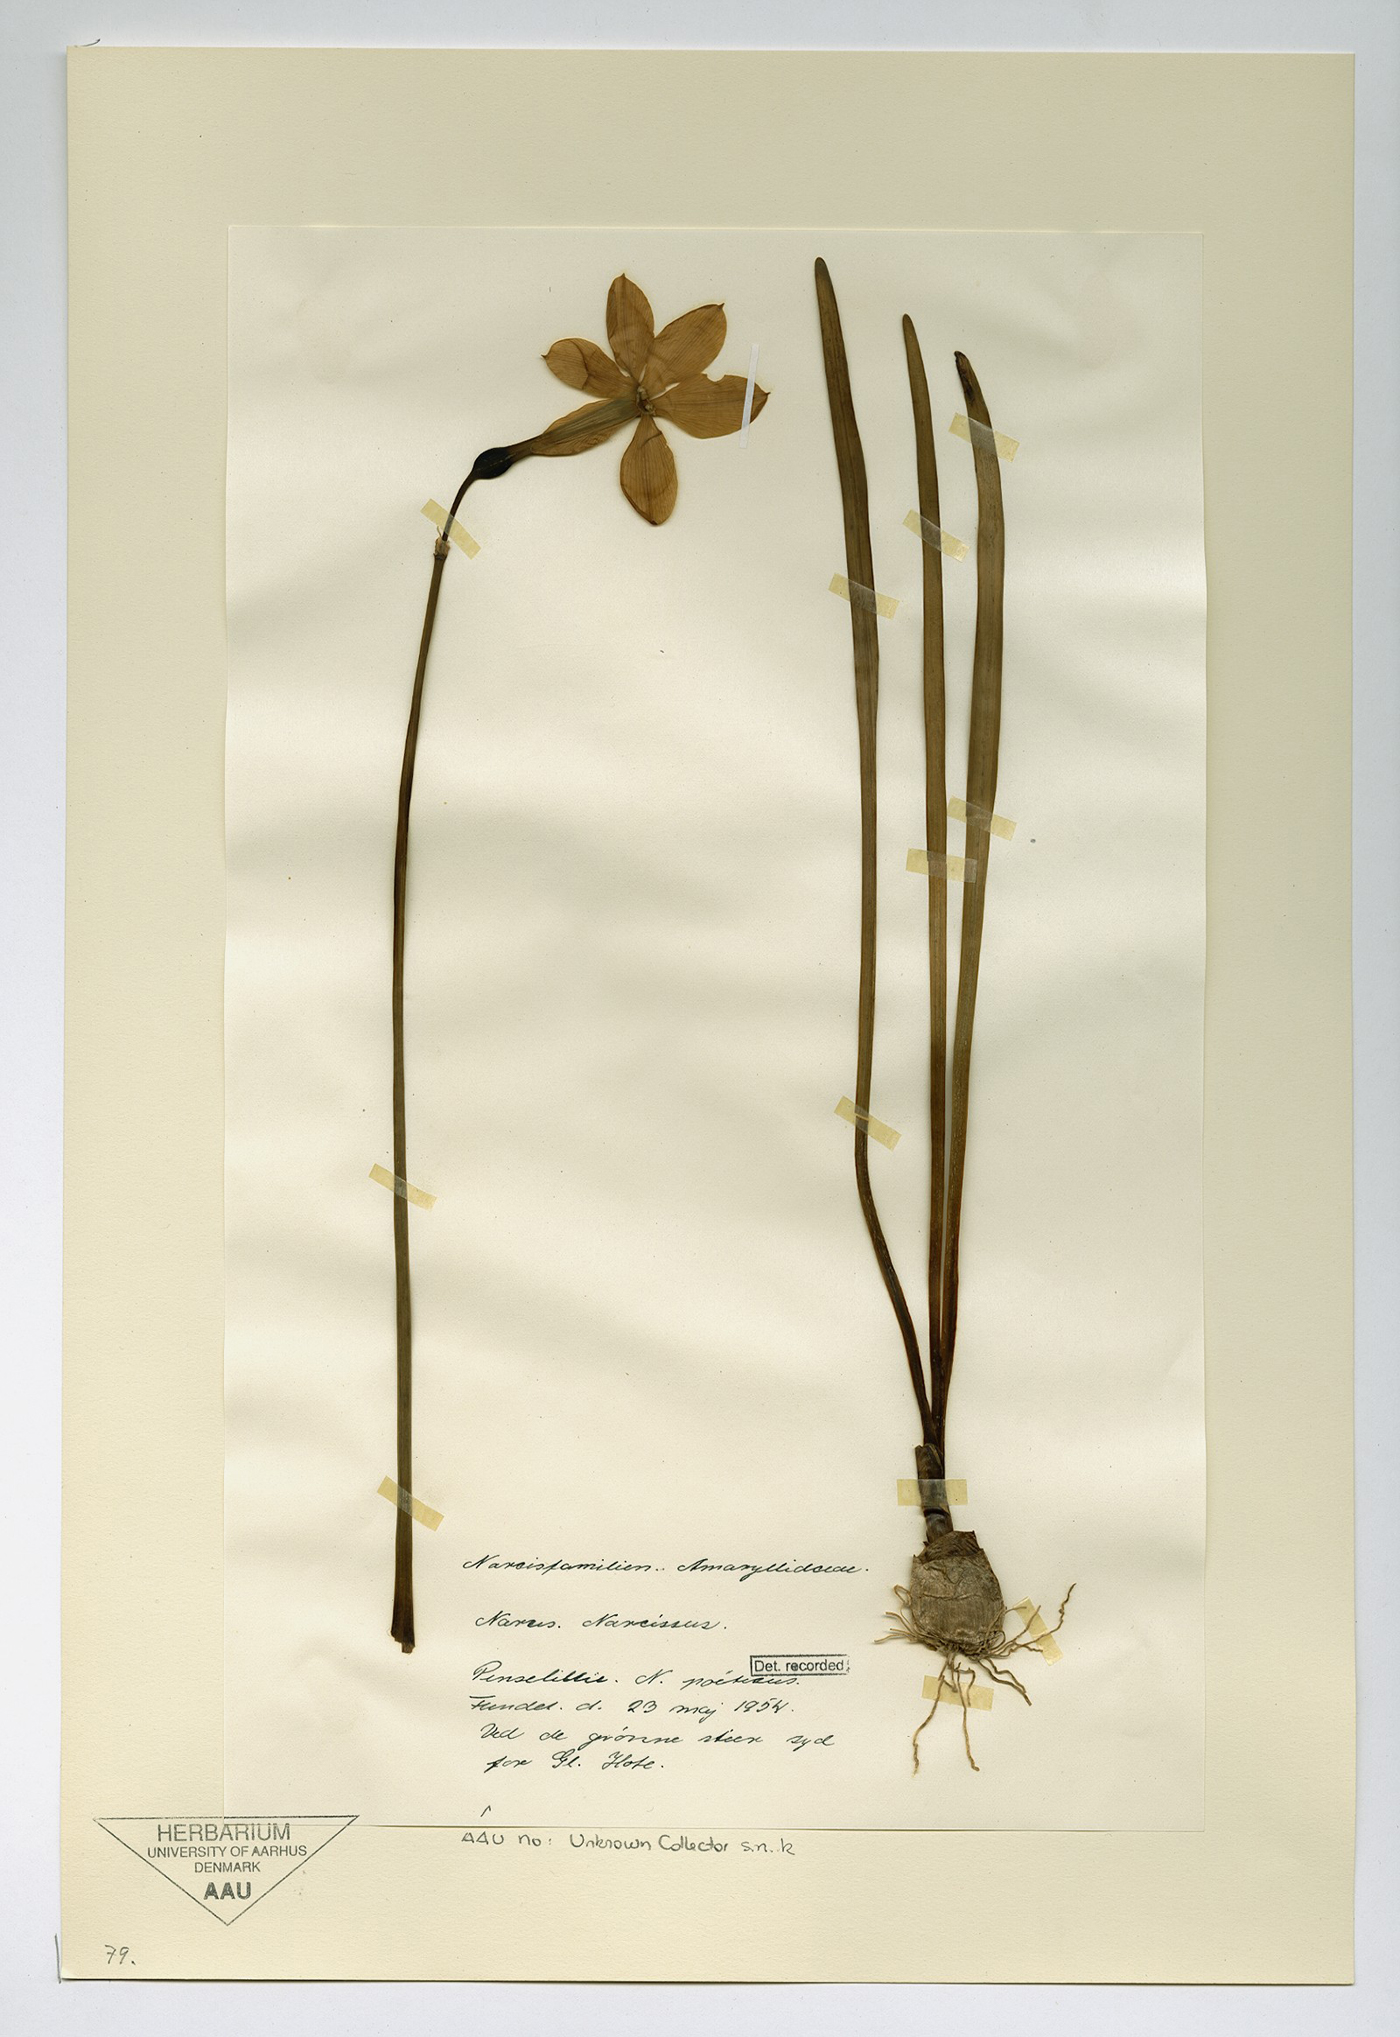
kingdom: Plantae
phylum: Tracheophyta
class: Liliopsida
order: Asparagales
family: Amaryllidaceae
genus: Narcissus
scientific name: Narcissus poeticus
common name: Pheasant's-eye daffodil
